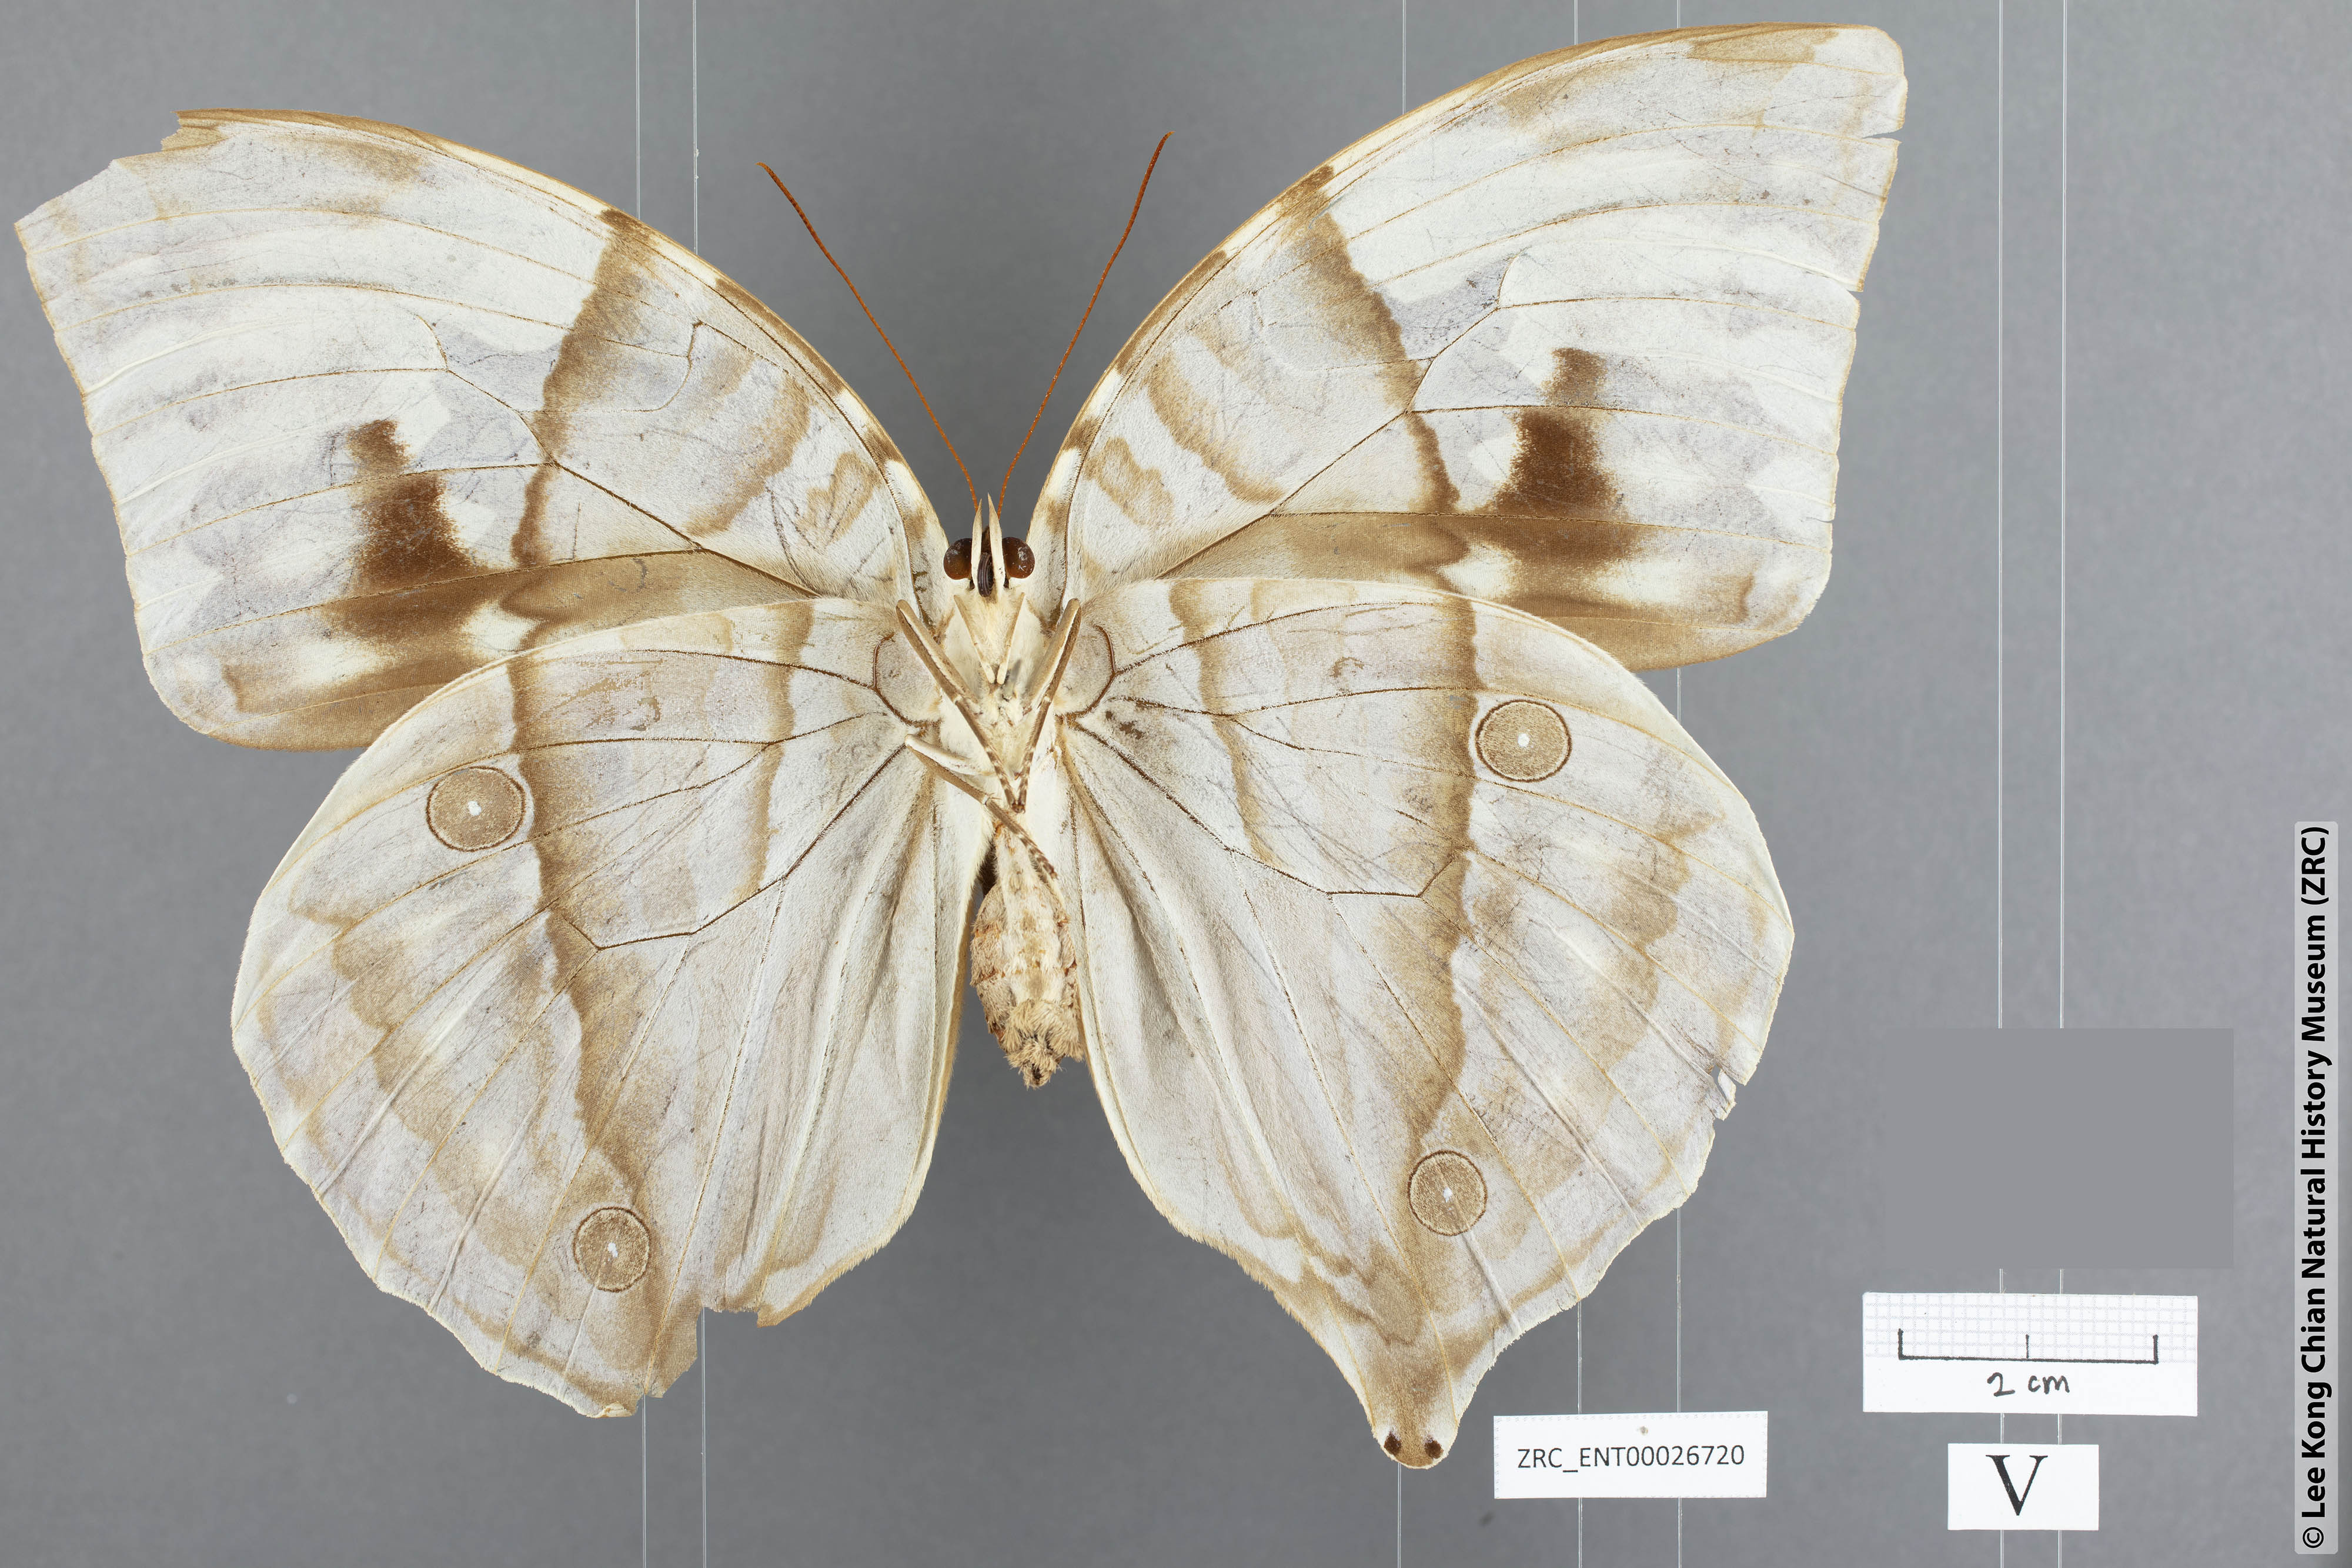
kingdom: Animalia
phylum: Arthropoda
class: Insecta
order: Lepidoptera
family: Nymphalidae
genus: Zeuxidia
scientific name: Zeuxidia aurelia
